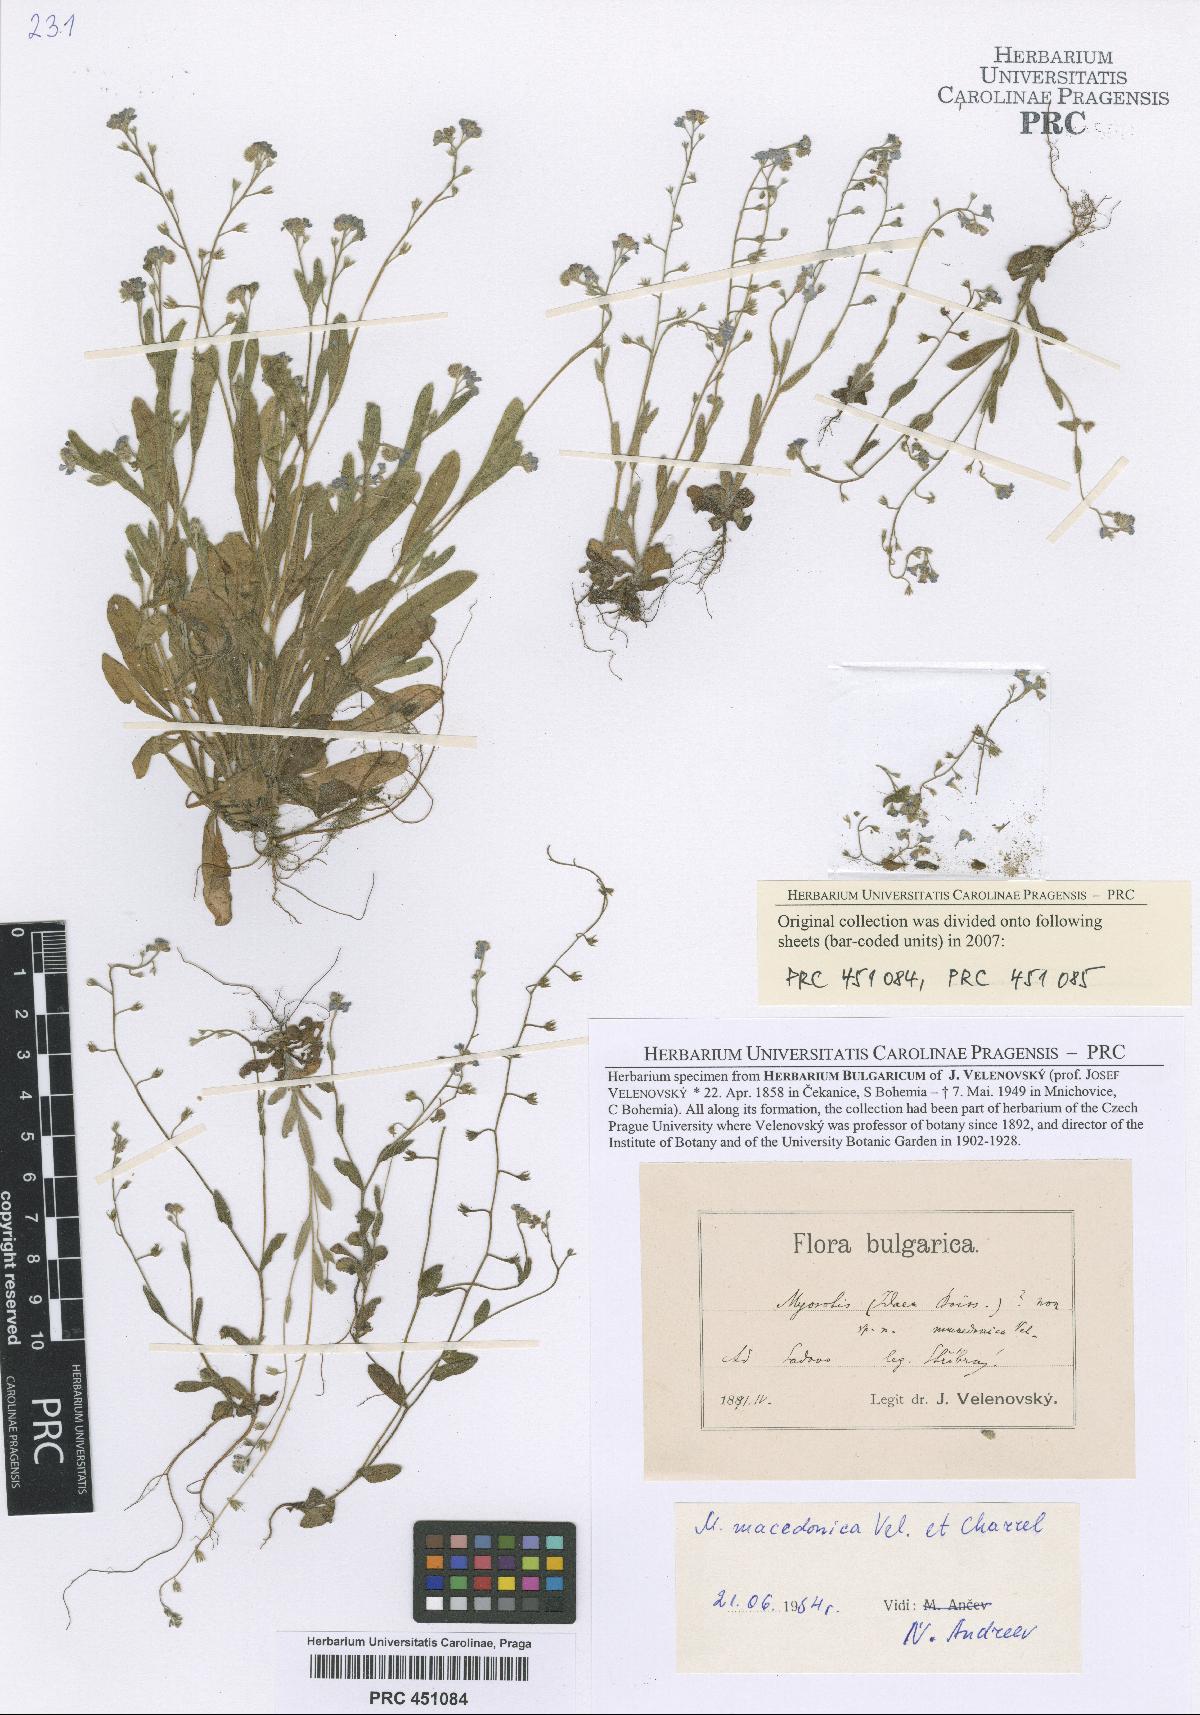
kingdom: Plantae
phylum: Tracheophyta
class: Magnoliopsida
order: Boraginales
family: Boraginaceae
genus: Myosotis
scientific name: Myosotis incrassata
